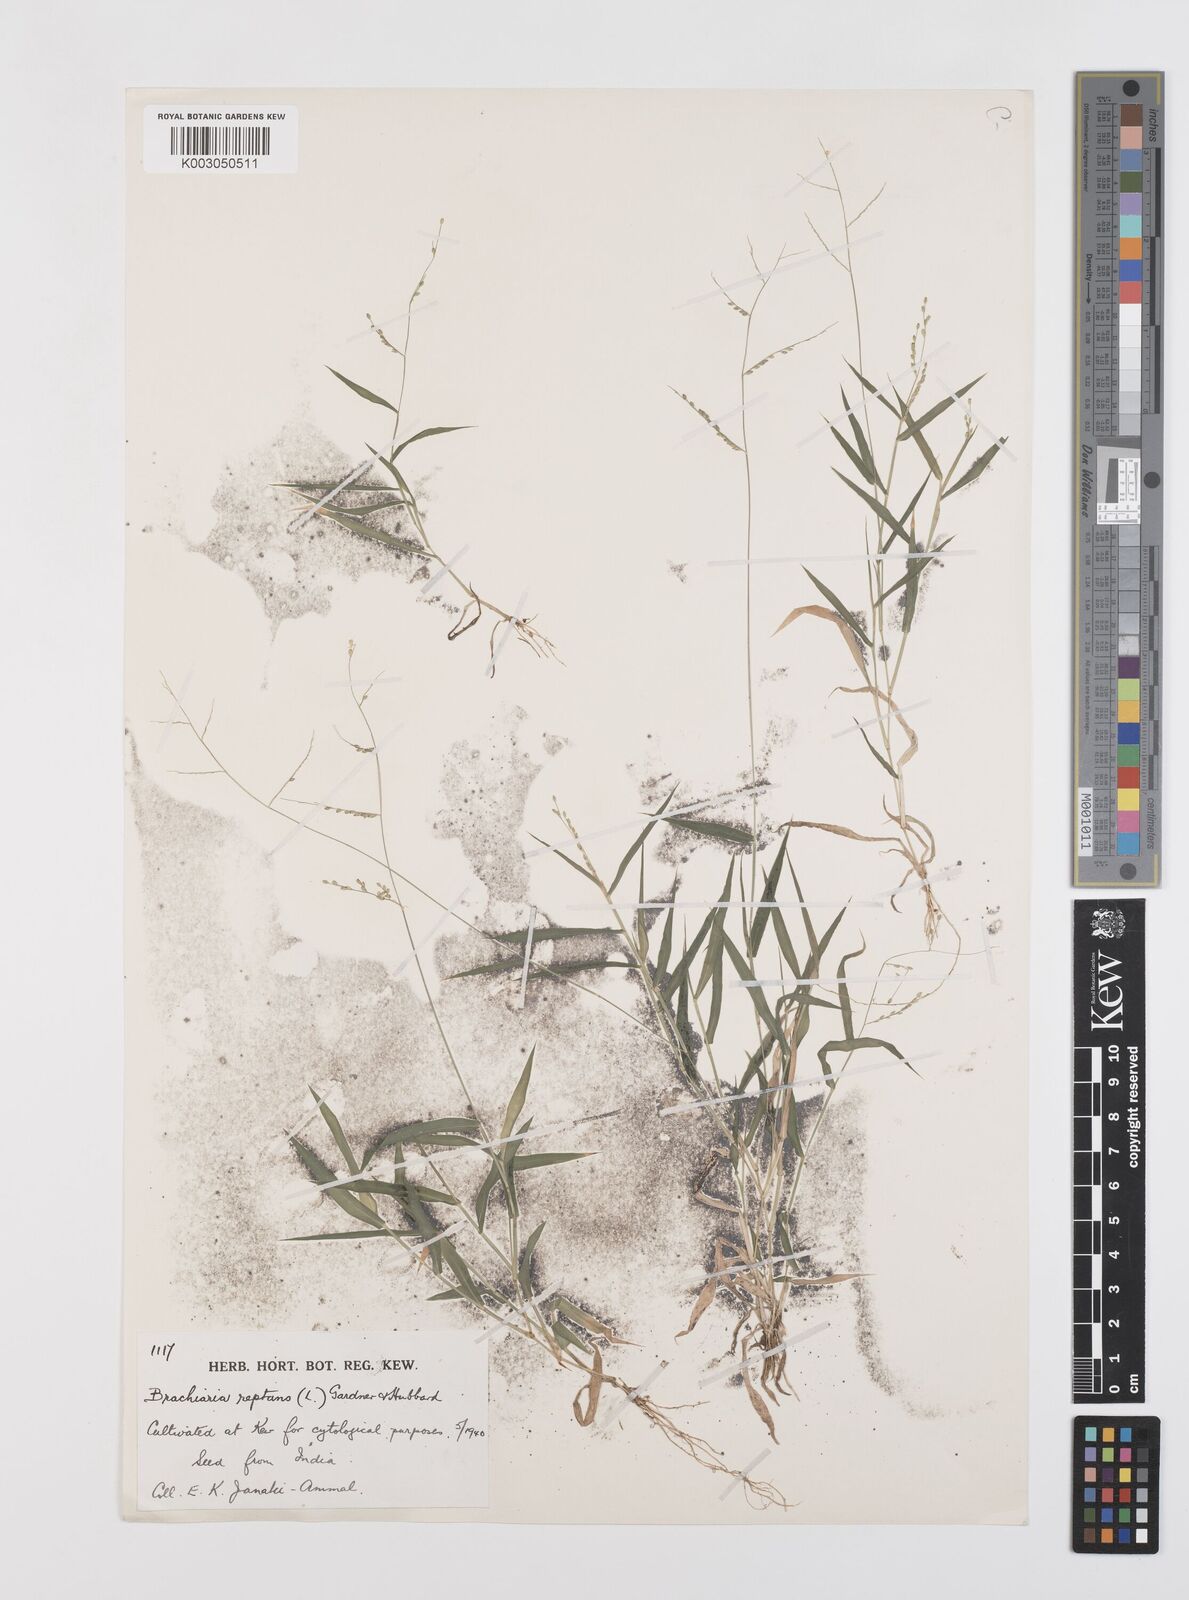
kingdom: Plantae
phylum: Tracheophyta
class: Liliopsida
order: Poales
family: Poaceae
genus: Urochloa
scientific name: Urochloa reptans
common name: Sprawling signalgrass
